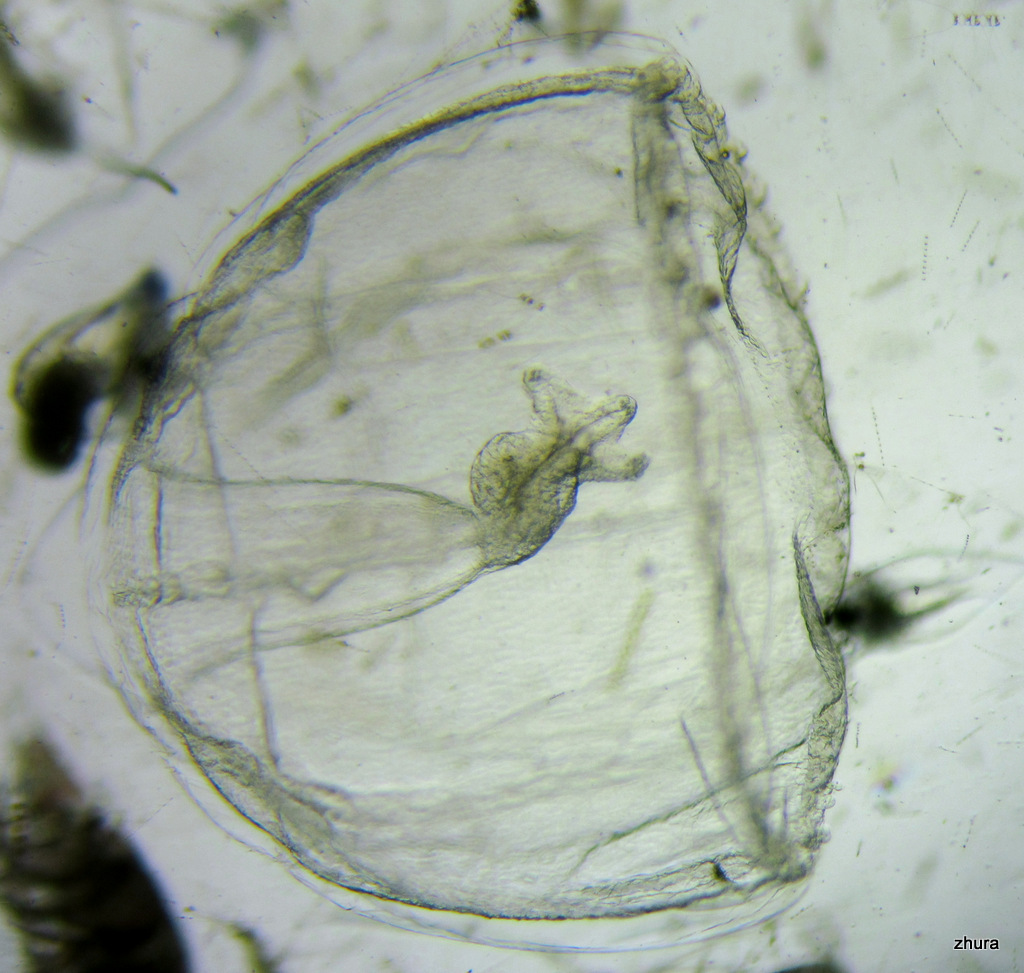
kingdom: Animalia
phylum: Cnidaria
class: Hydrozoa
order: Trachymedusae
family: Rhopalonematidae
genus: Aglantha
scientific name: Aglantha digitale
